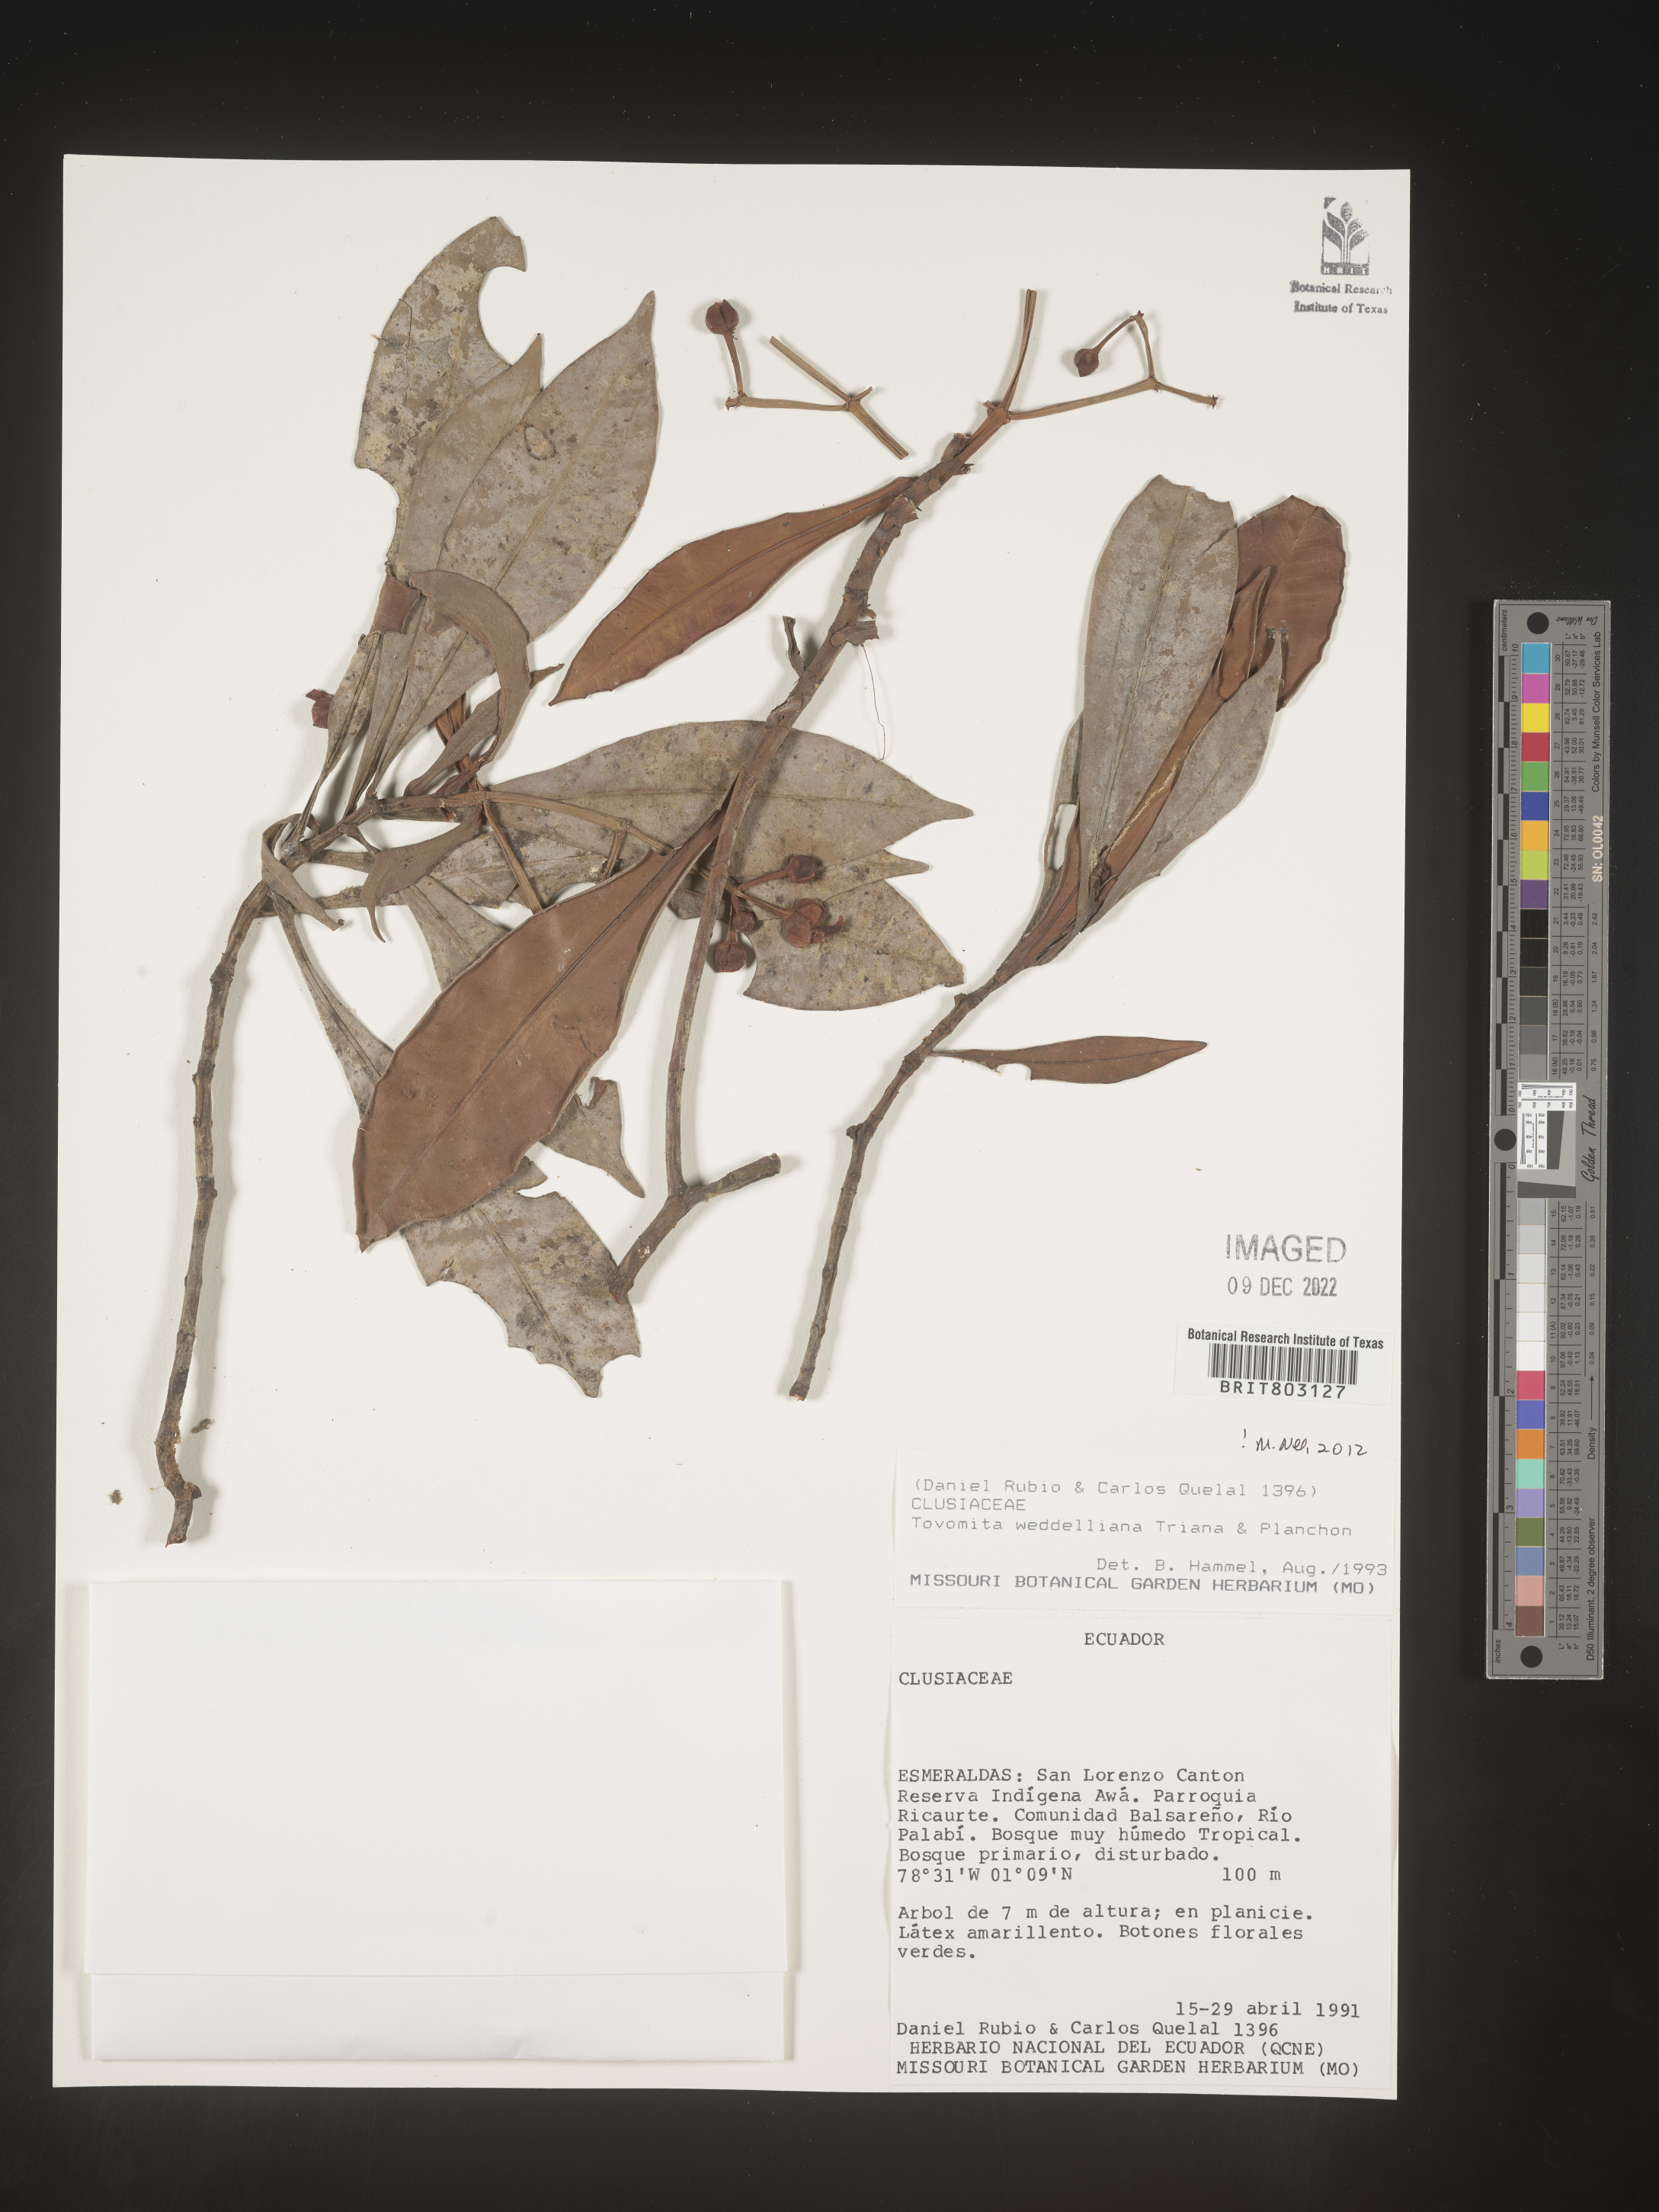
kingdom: Plantae
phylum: Tracheophyta
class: Magnoliopsida
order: Malpighiales
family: Clusiaceae
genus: Arawakia
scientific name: Arawakia weddelliana
